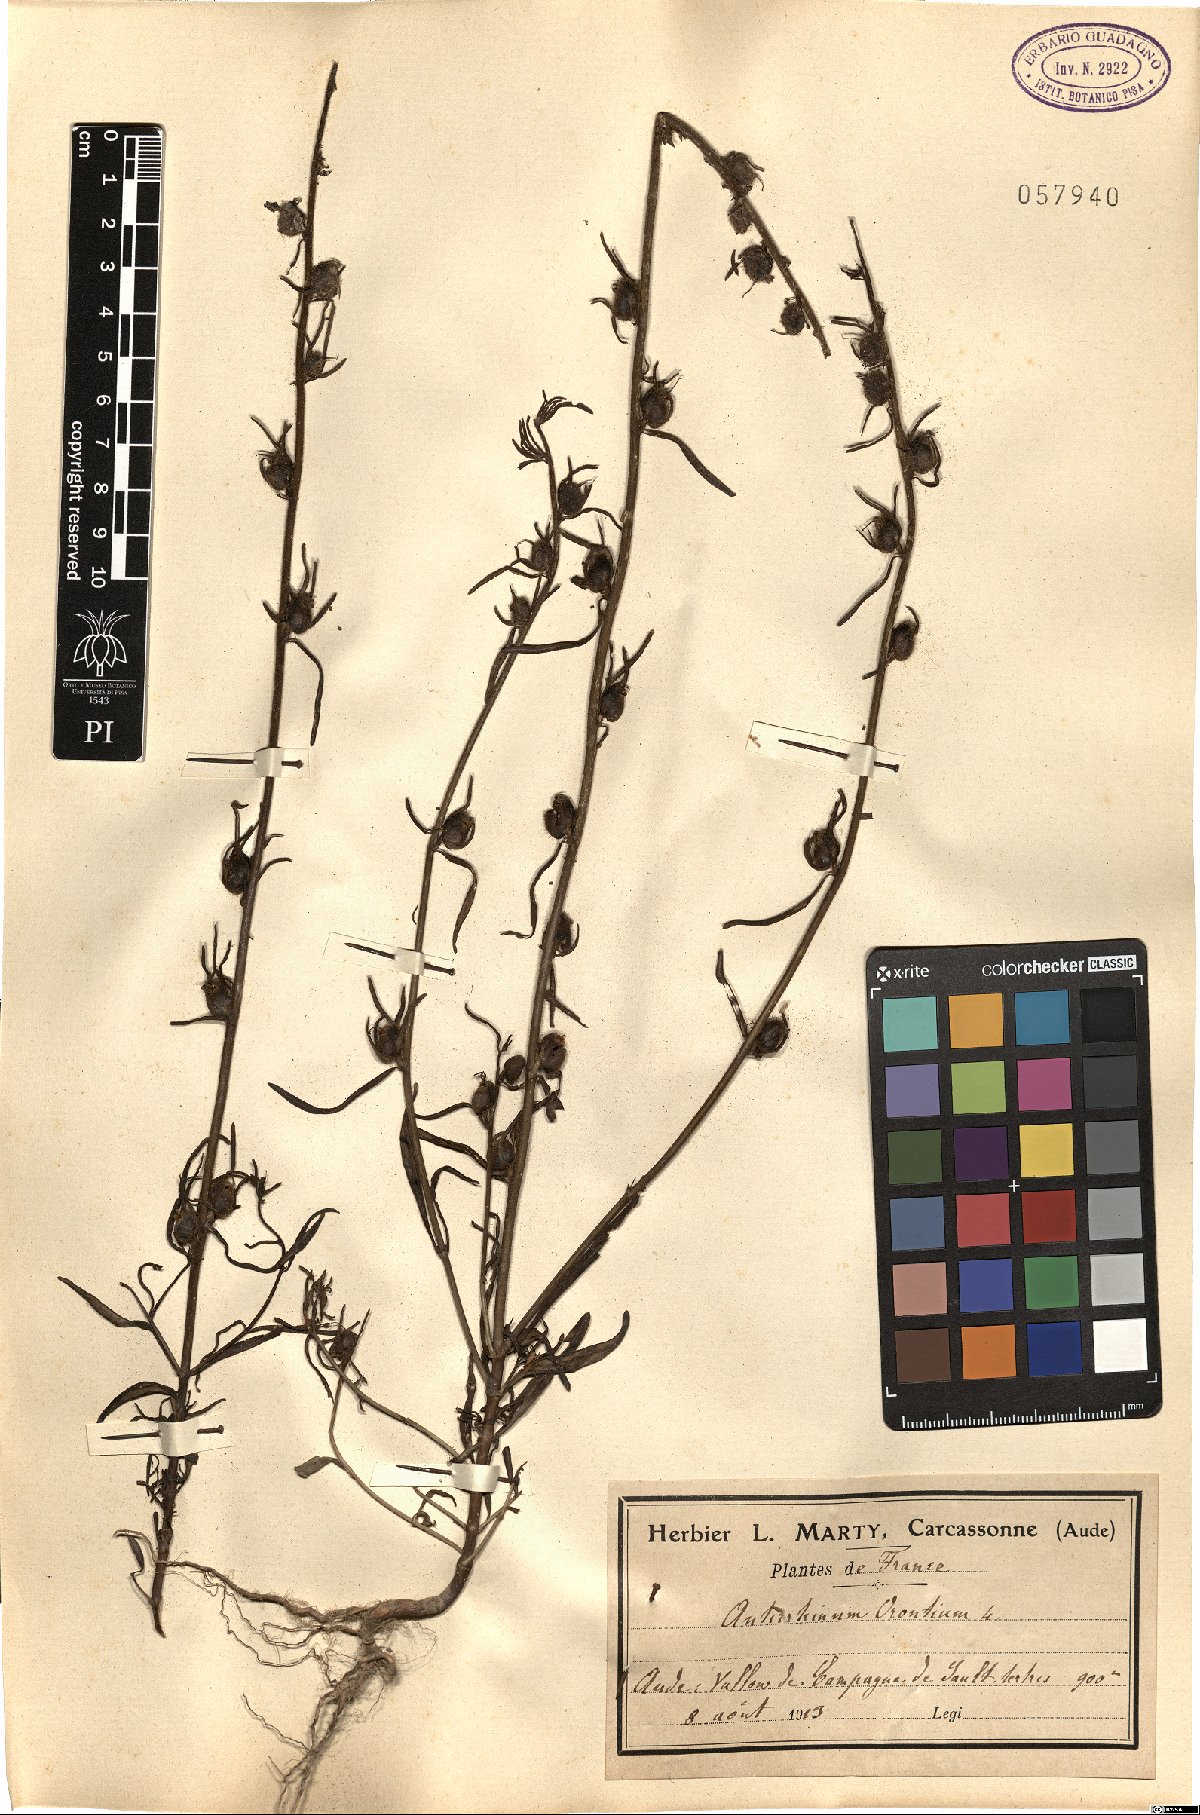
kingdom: Plantae
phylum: Tracheophyta
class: Magnoliopsida
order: Lamiales
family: Plantaginaceae
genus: Misopates
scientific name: Misopates orontium
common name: Weasel's-snout
